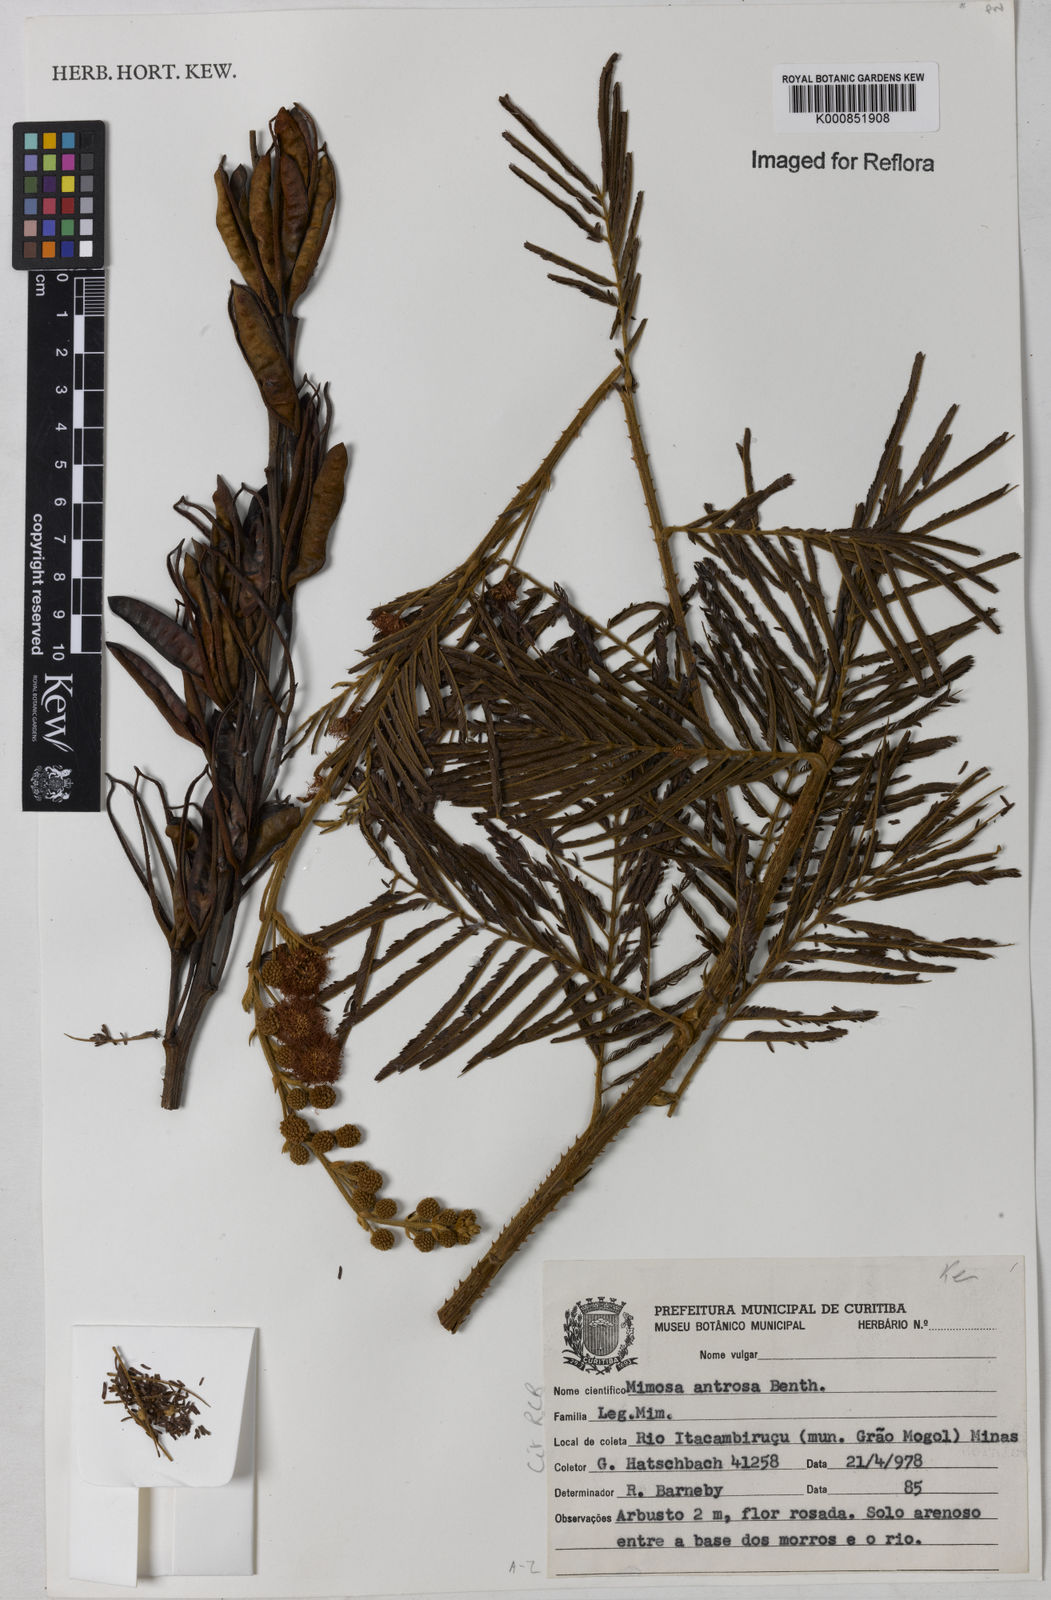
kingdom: Plantae
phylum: Tracheophyta
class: Magnoliopsida
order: Fabales
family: Fabaceae
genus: Mimosa
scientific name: Mimosa antrorsa
